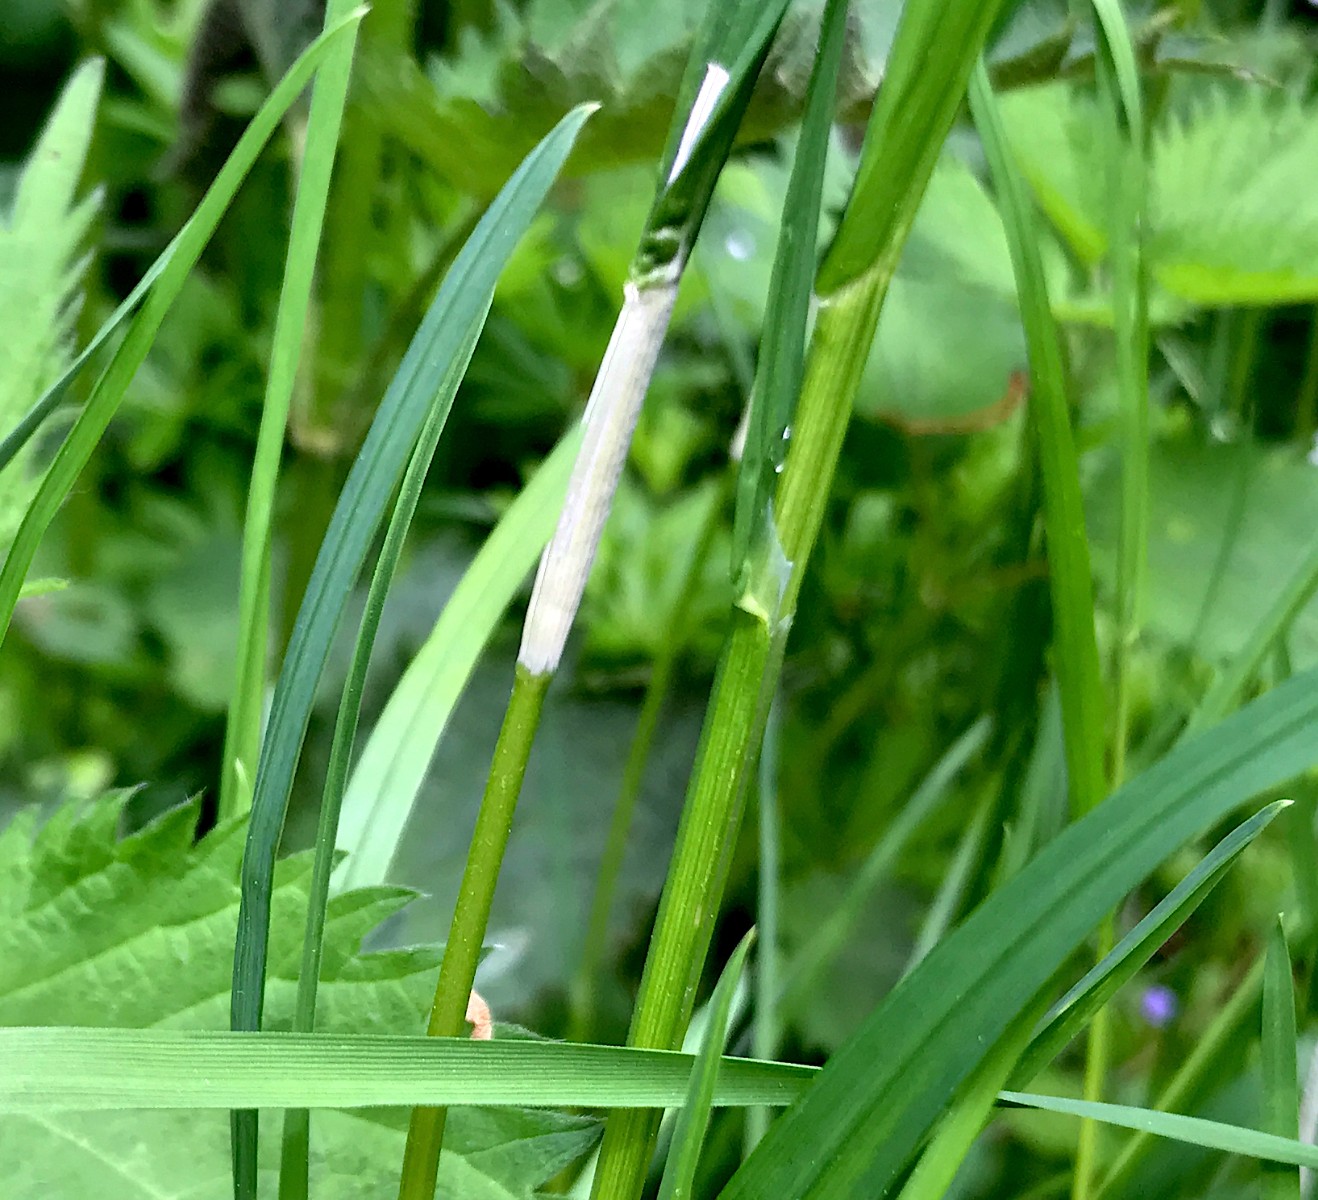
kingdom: Fungi
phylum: Ascomycota
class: Sordariomycetes
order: Hypocreales
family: Clavicipitaceae
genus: Epichloe
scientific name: Epichloe
